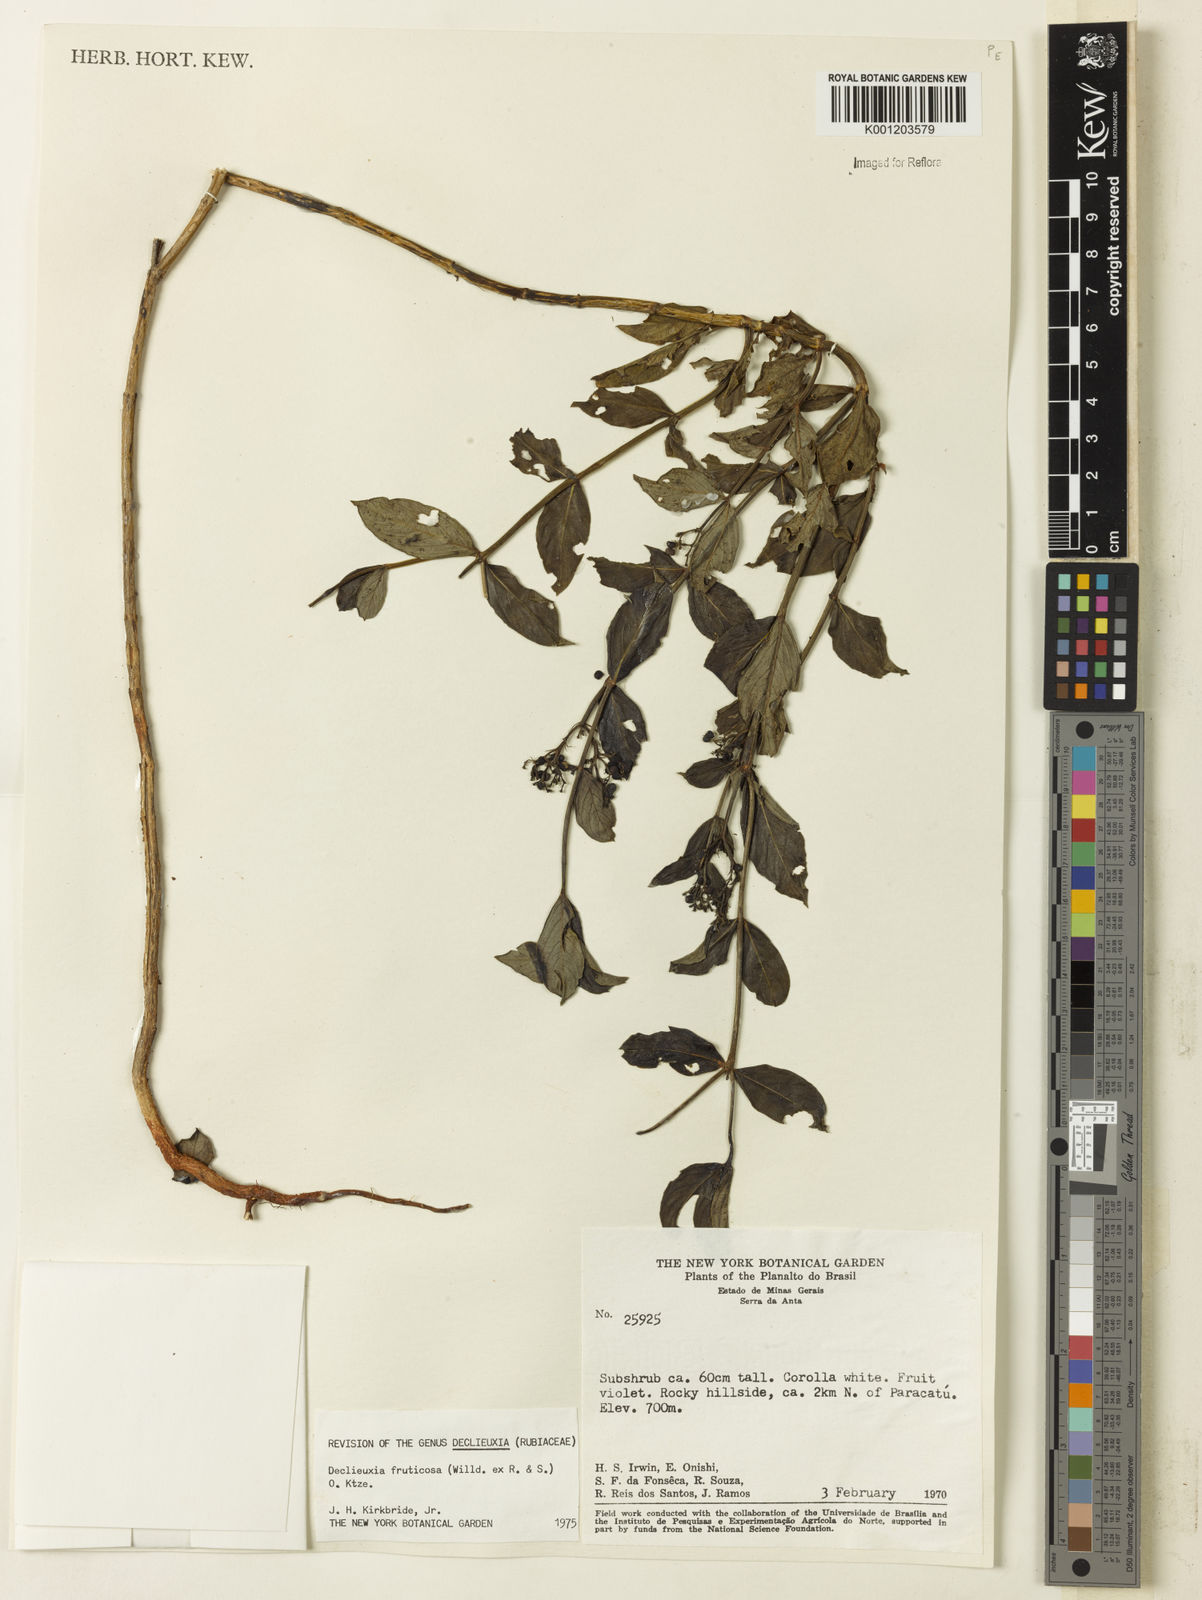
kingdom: Plantae
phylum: Tracheophyta
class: Magnoliopsida
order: Gentianales
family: Rubiaceae
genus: Declieuxia
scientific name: Declieuxia fruticosa
